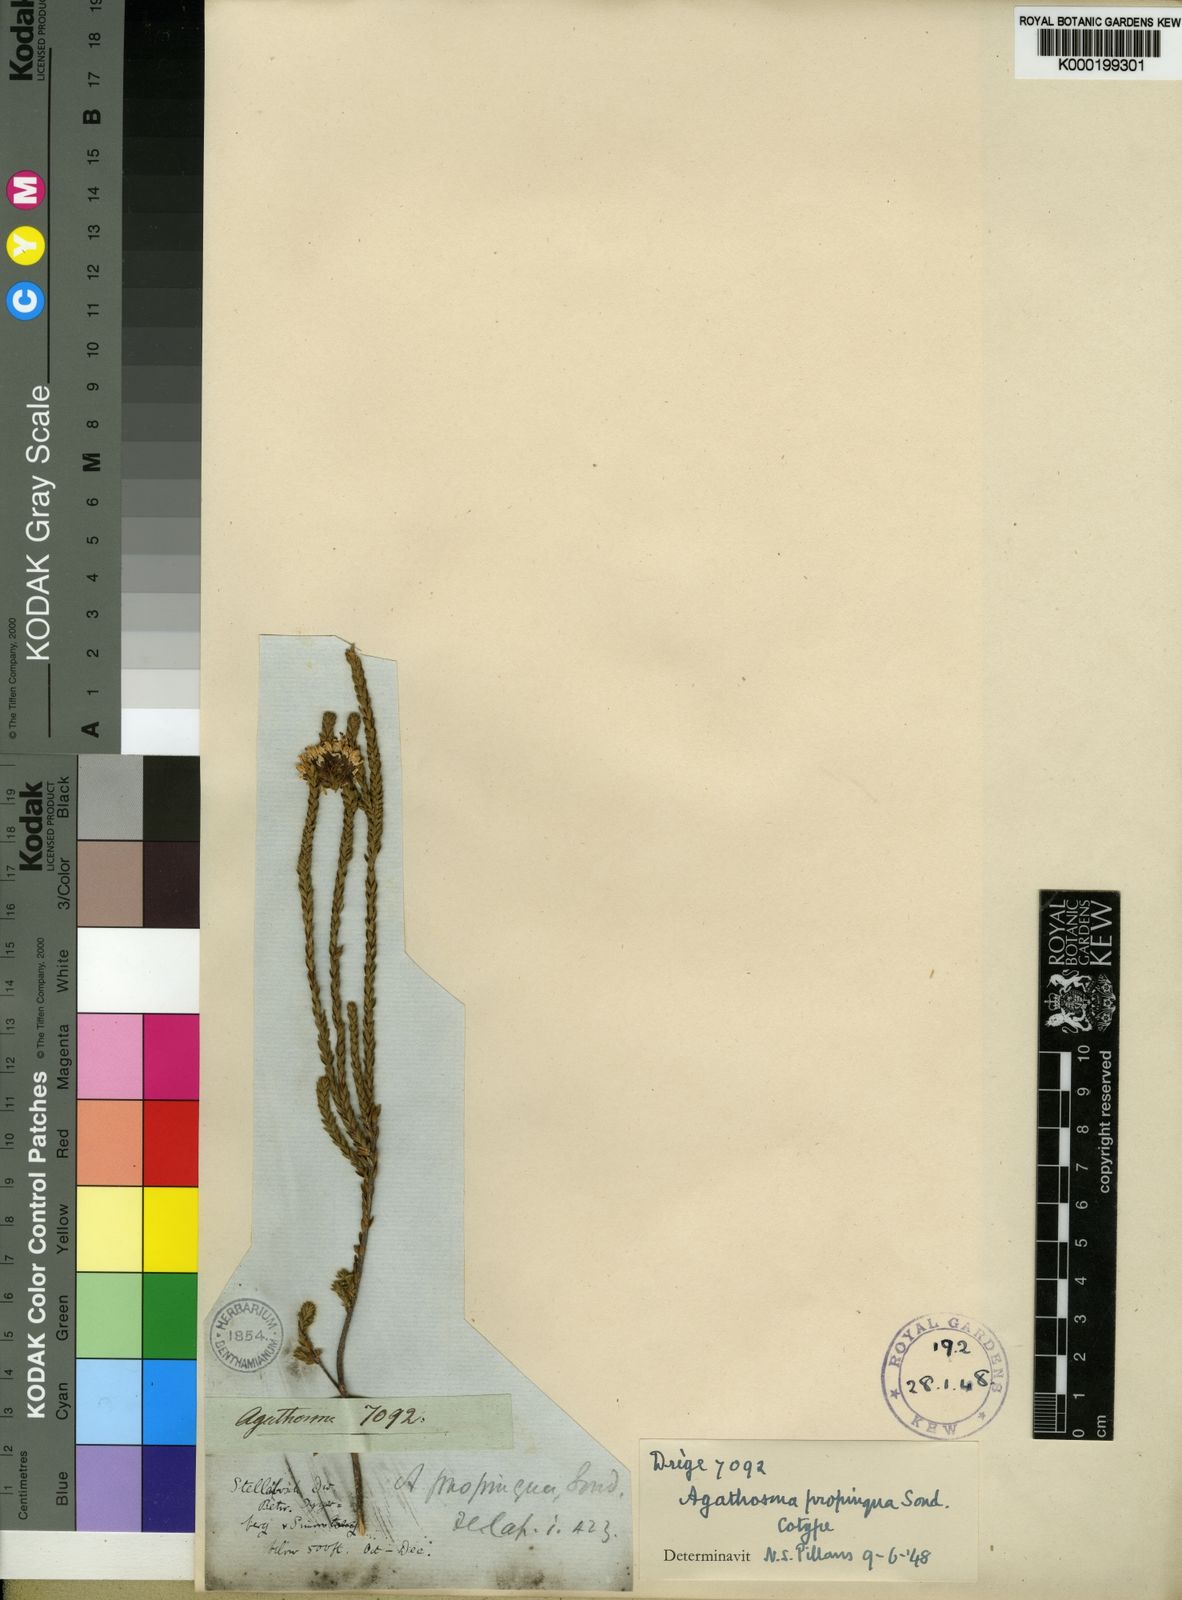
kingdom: Plantae
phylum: Tracheophyta
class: Magnoliopsida
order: Sapindales
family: Rutaceae
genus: Agathosma
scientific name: Agathosma propinqua
